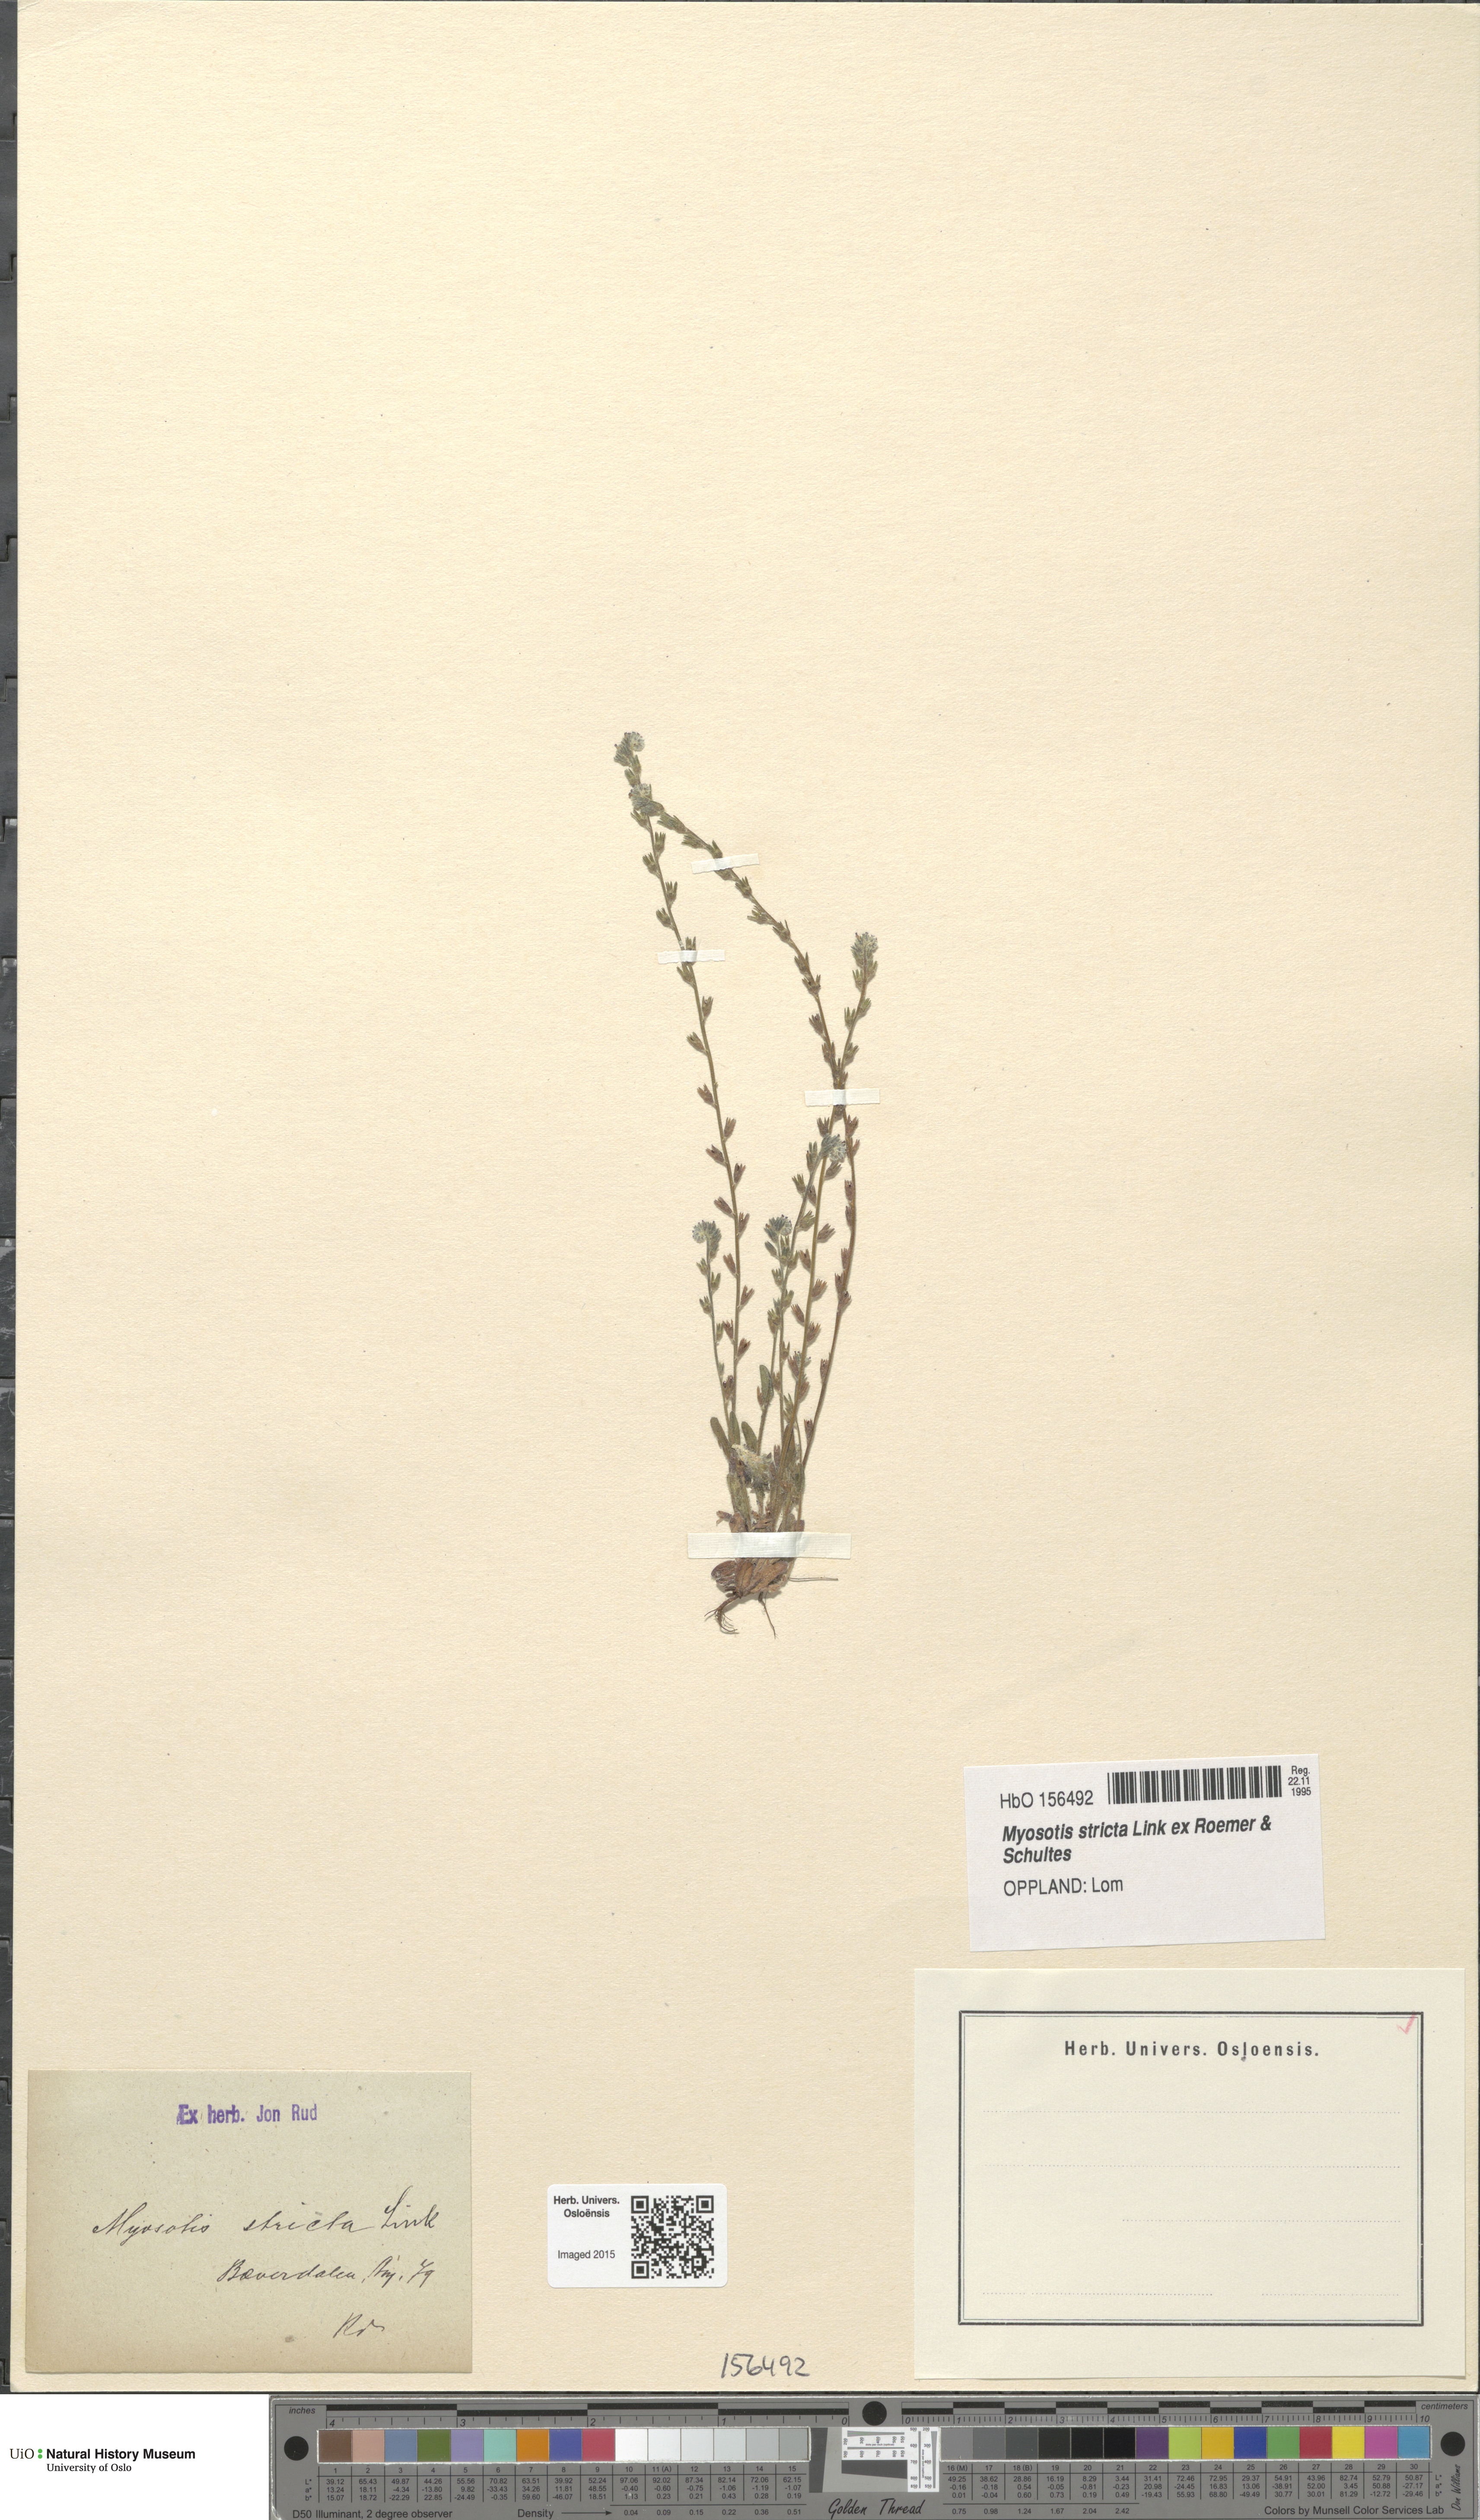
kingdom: Plantae
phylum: Tracheophyta
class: Magnoliopsida
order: Boraginales
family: Boraginaceae
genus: Myosotis
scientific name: Myosotis stricta
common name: Strict forget-me-not
